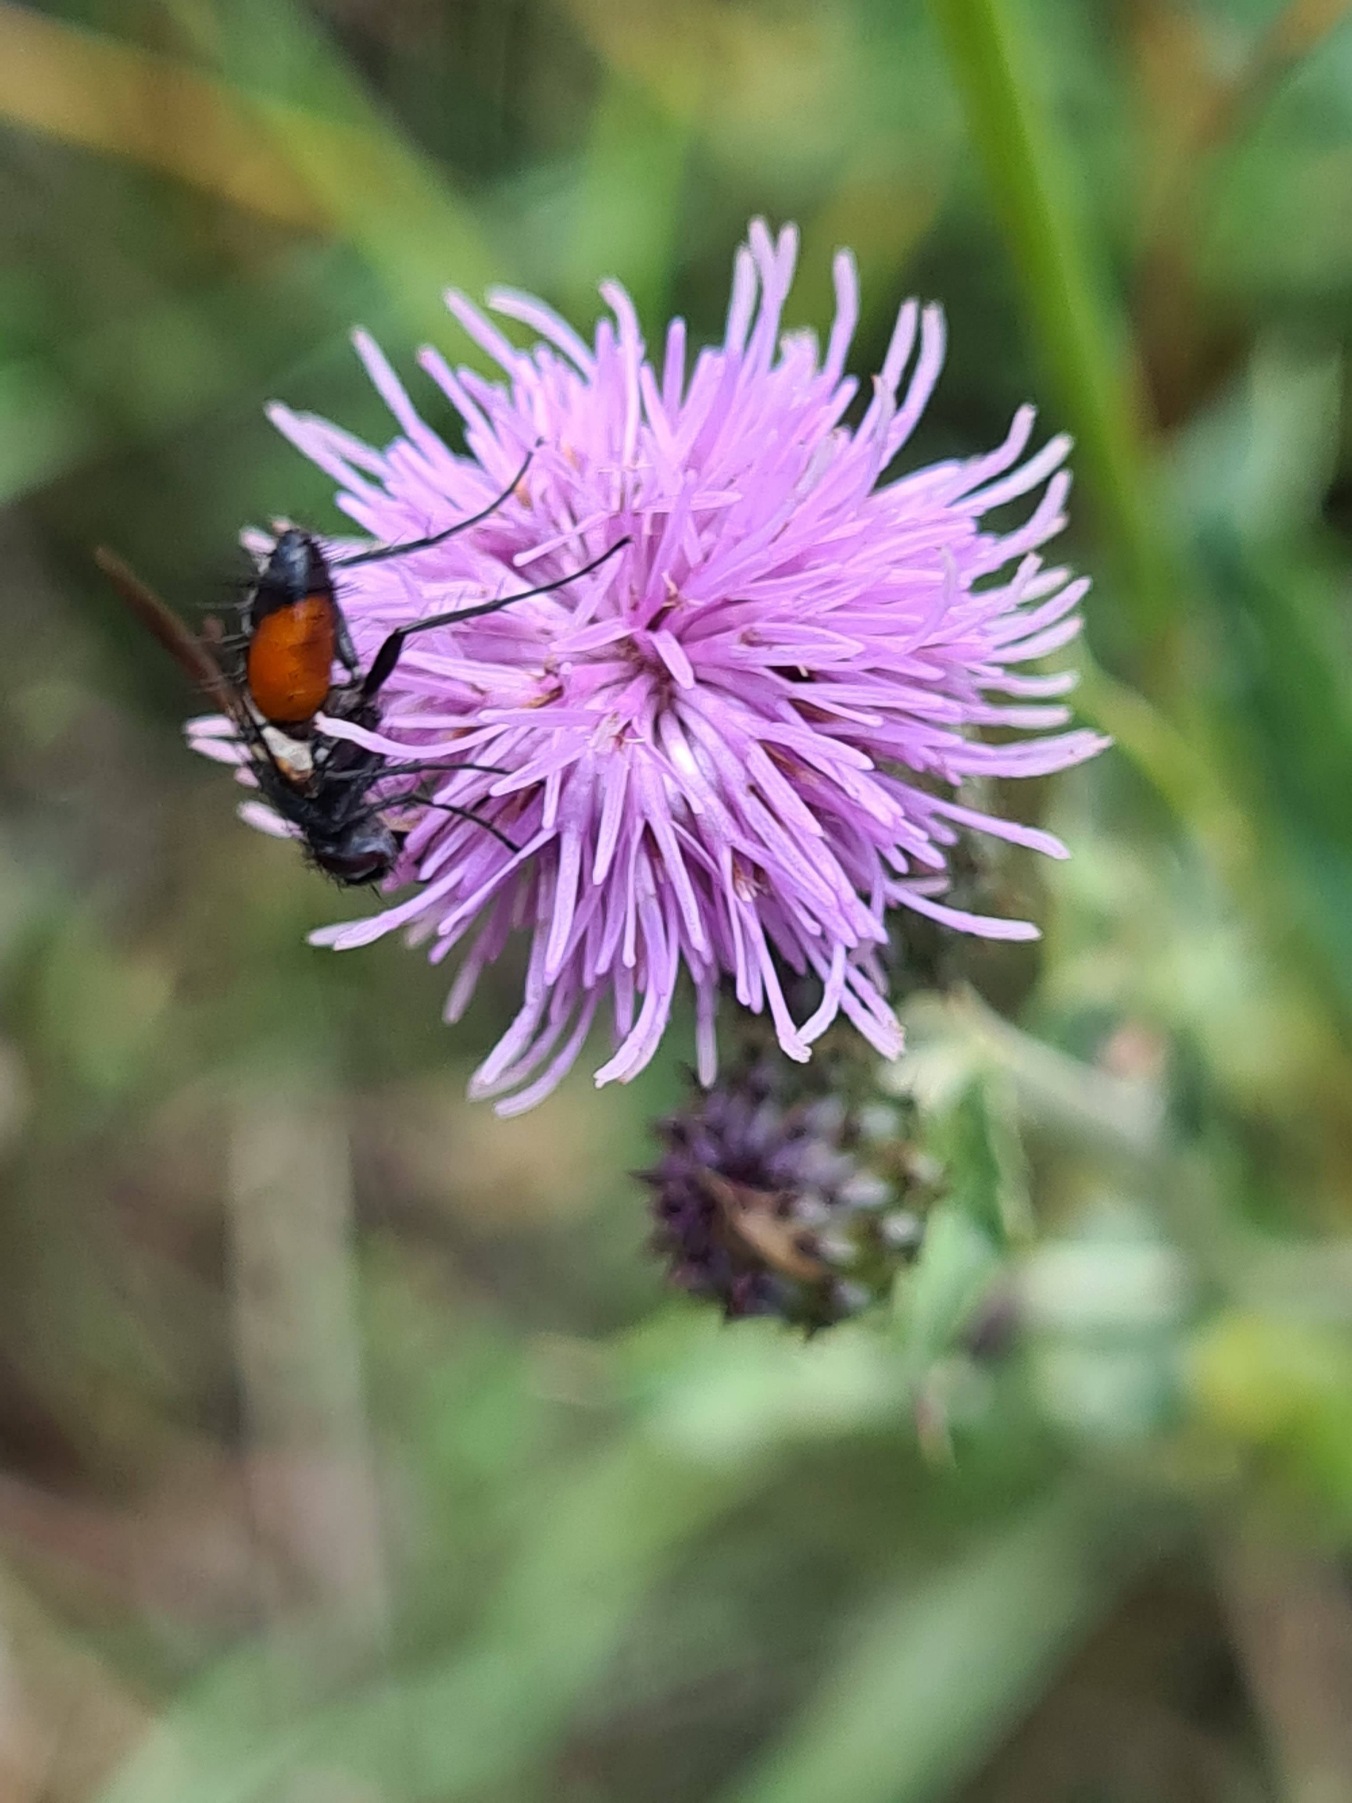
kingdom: Animalia
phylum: Arthropoda
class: Insecta
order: Diptera
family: Tachinidae
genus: Eriothrix
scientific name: Eriothrix rufomaculatus
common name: Rød snylteflue
